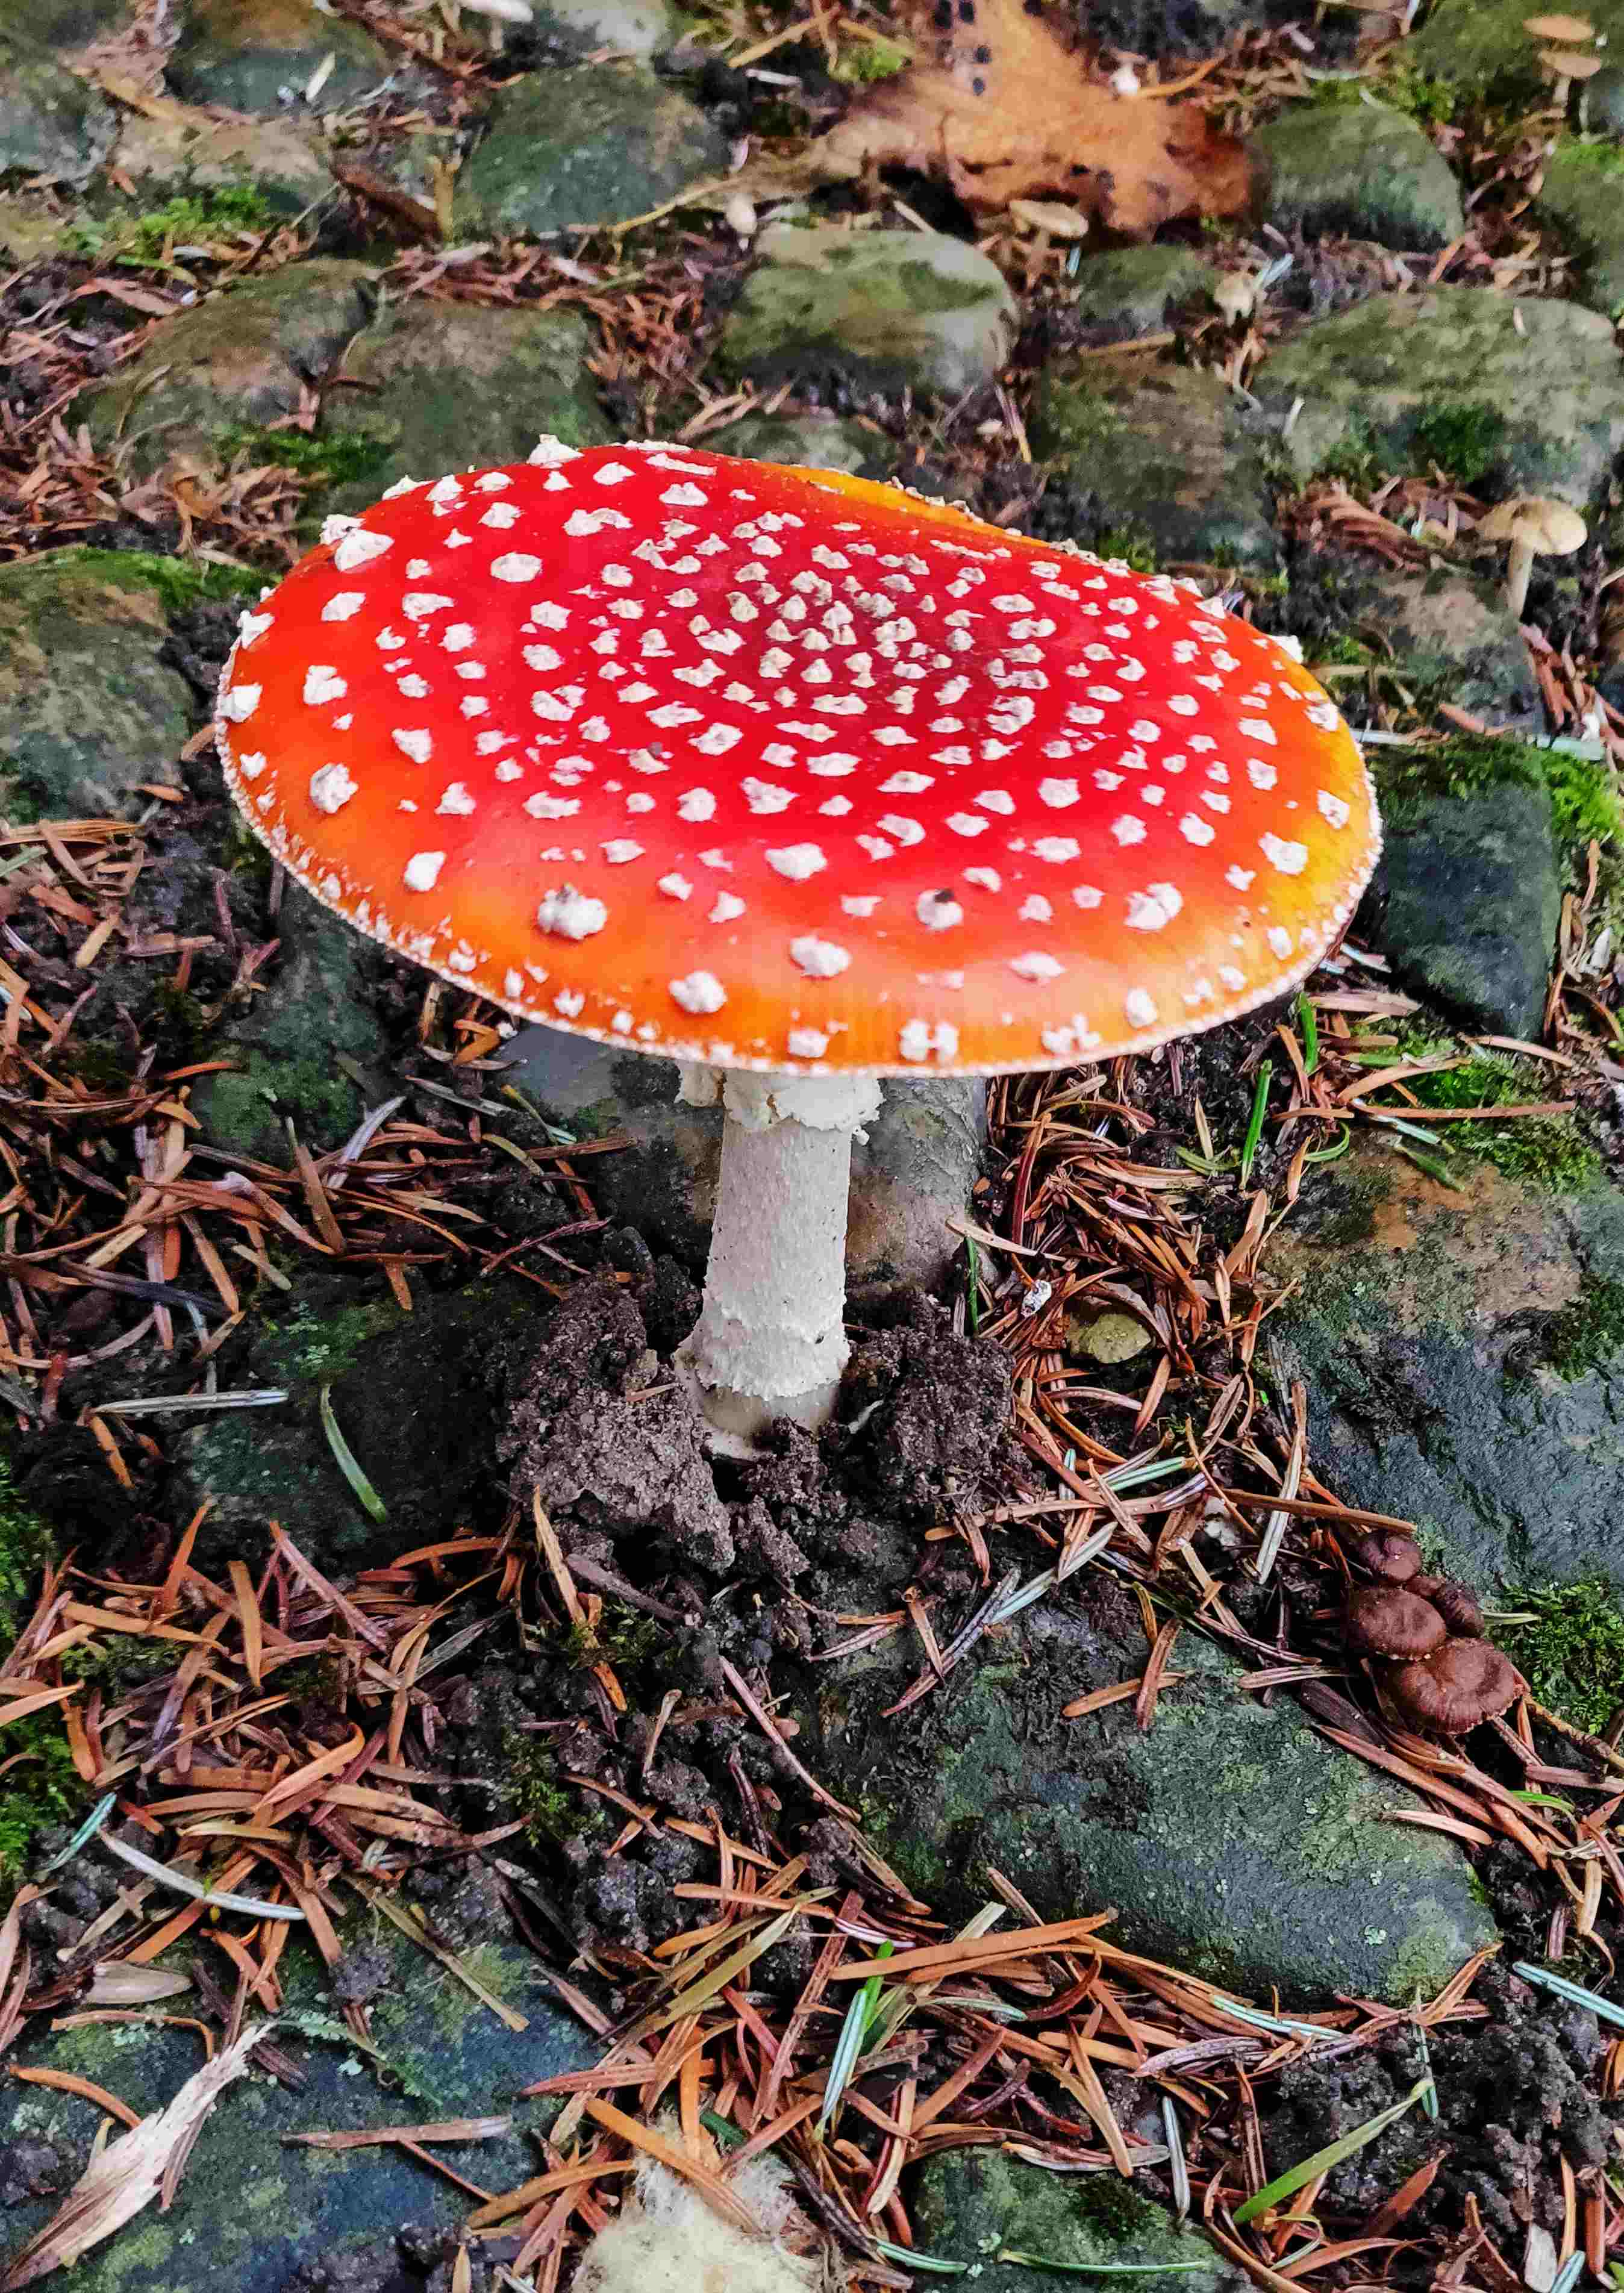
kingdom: Fungi
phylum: Basidiomycota
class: Agaricomycetes
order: Agaricales
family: Amanitaceae
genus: Amanita
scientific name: Amanita muscaria
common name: rød fluesvamp
